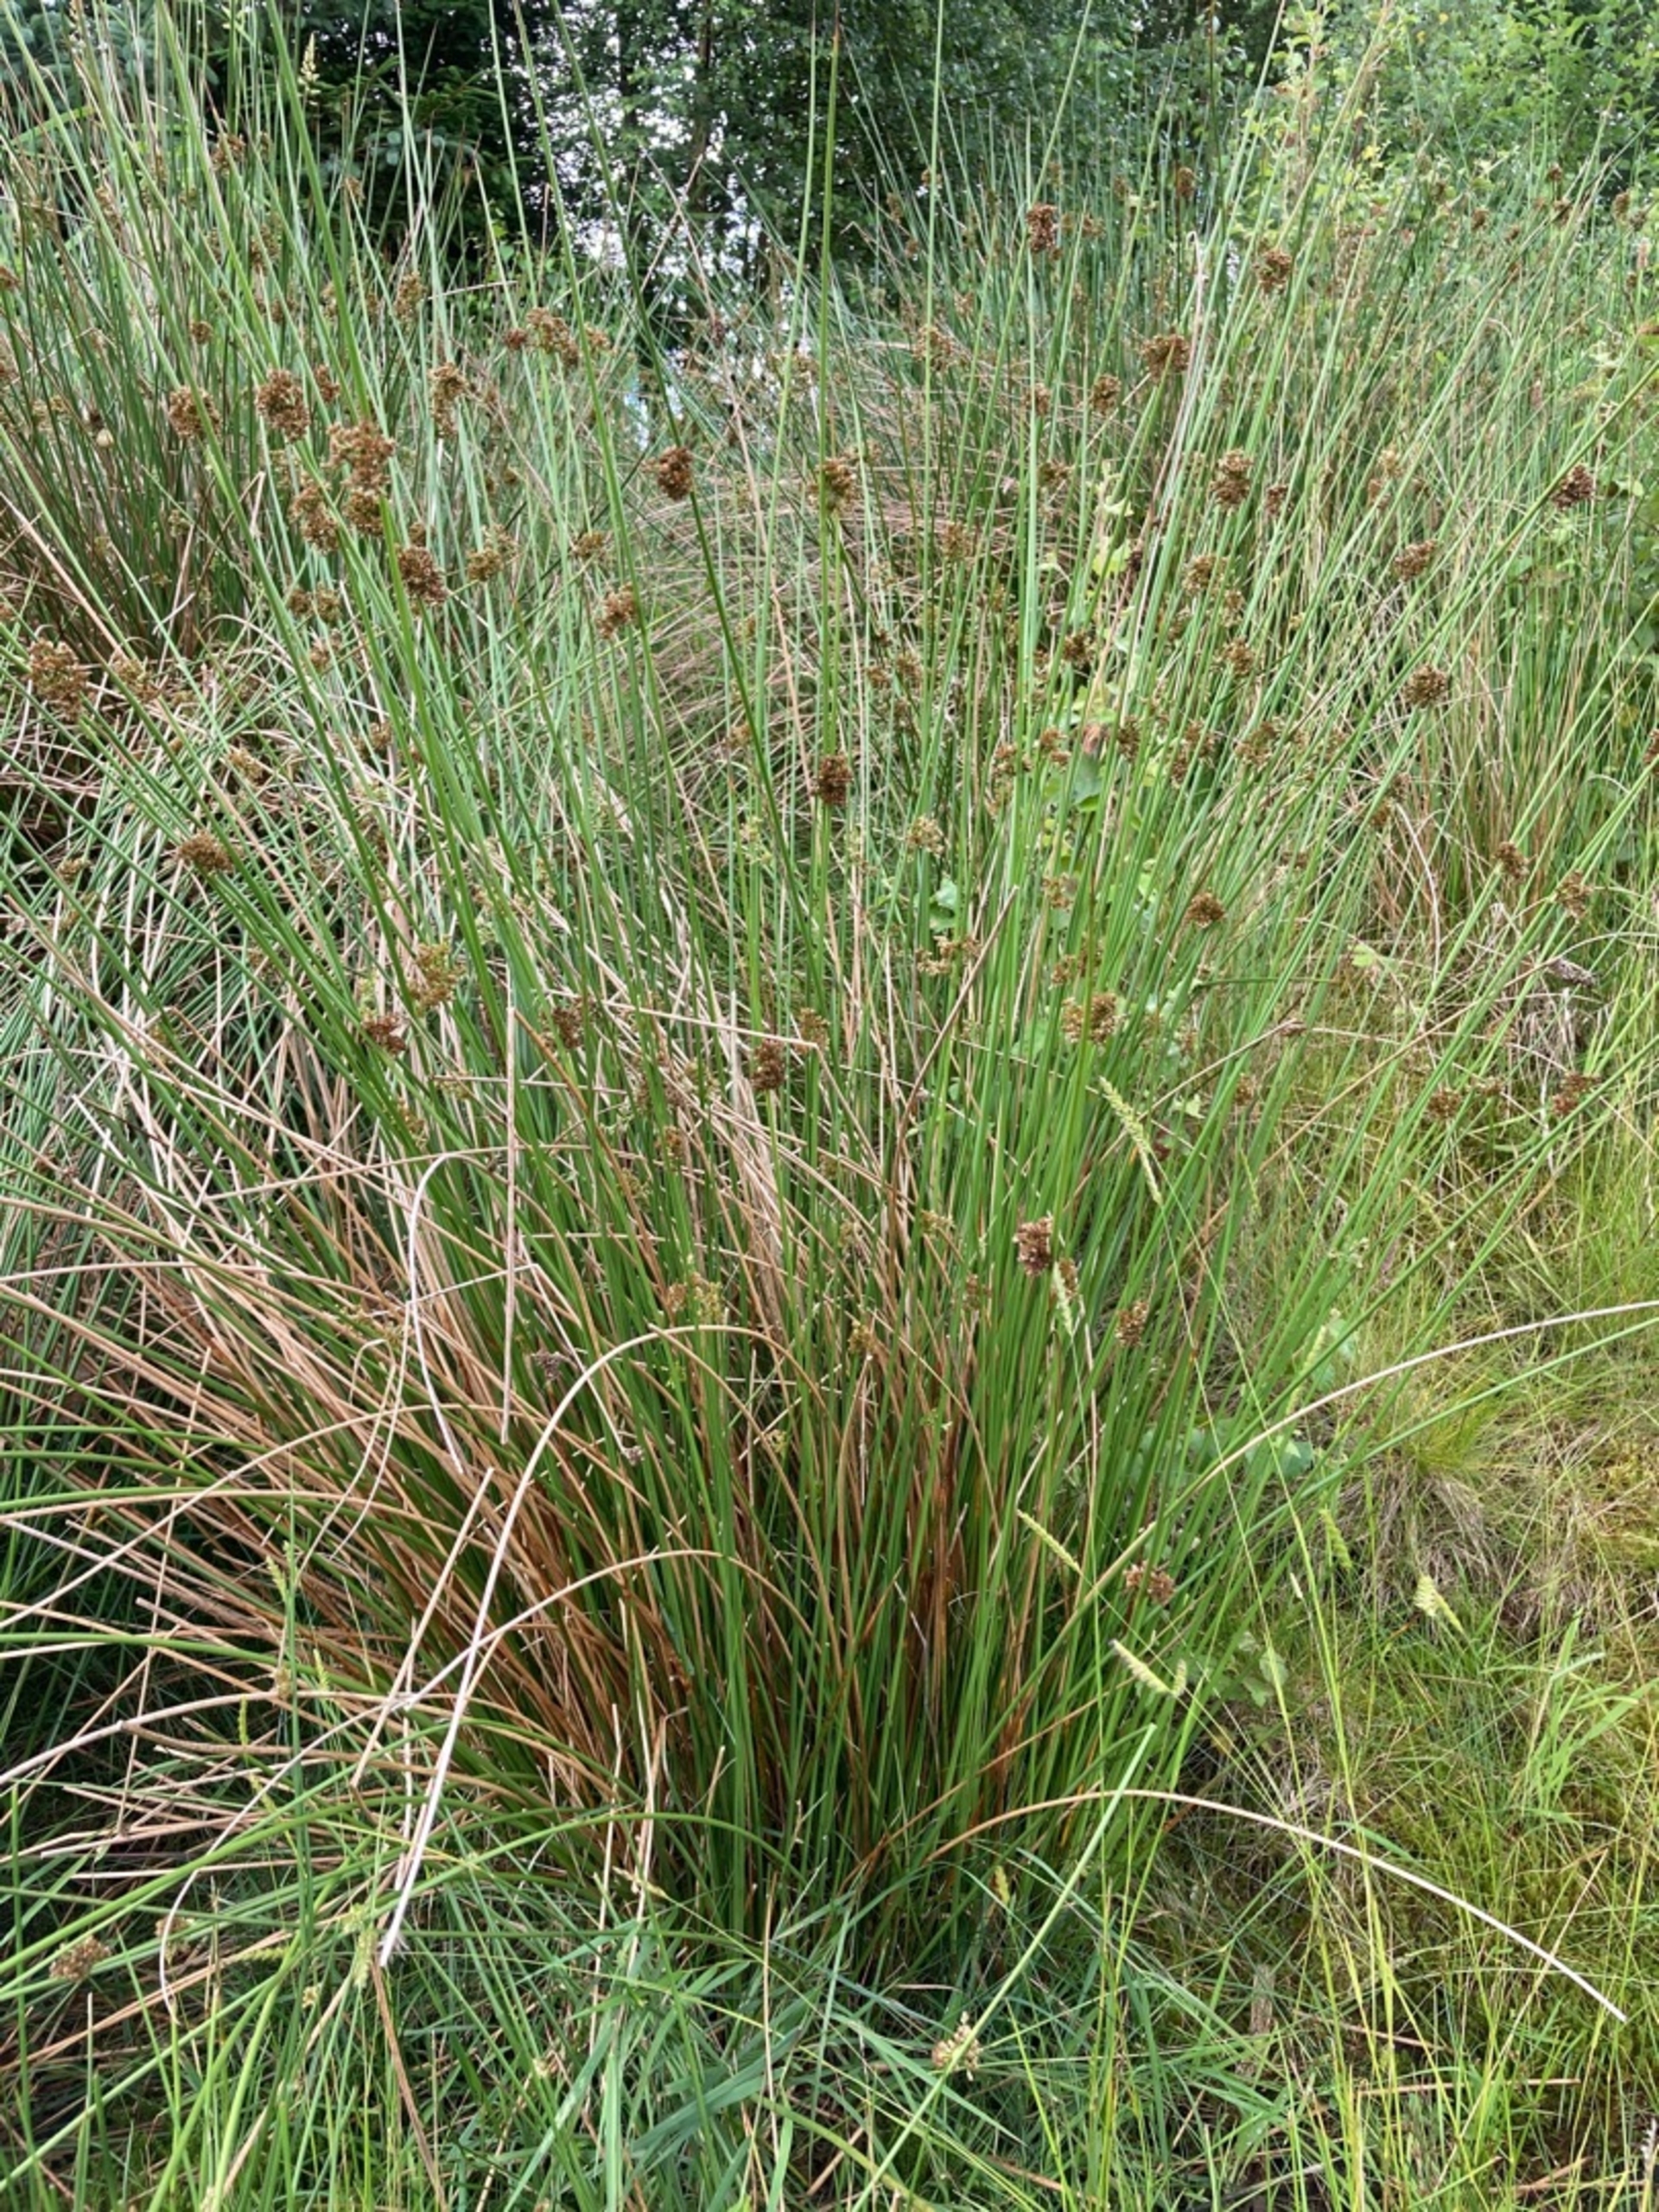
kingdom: Plantae
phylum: Tracheophyta
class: Liliopsida
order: Poales
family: Juncaceae
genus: Juncus
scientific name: Juncus effusus
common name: Lyse-siv
